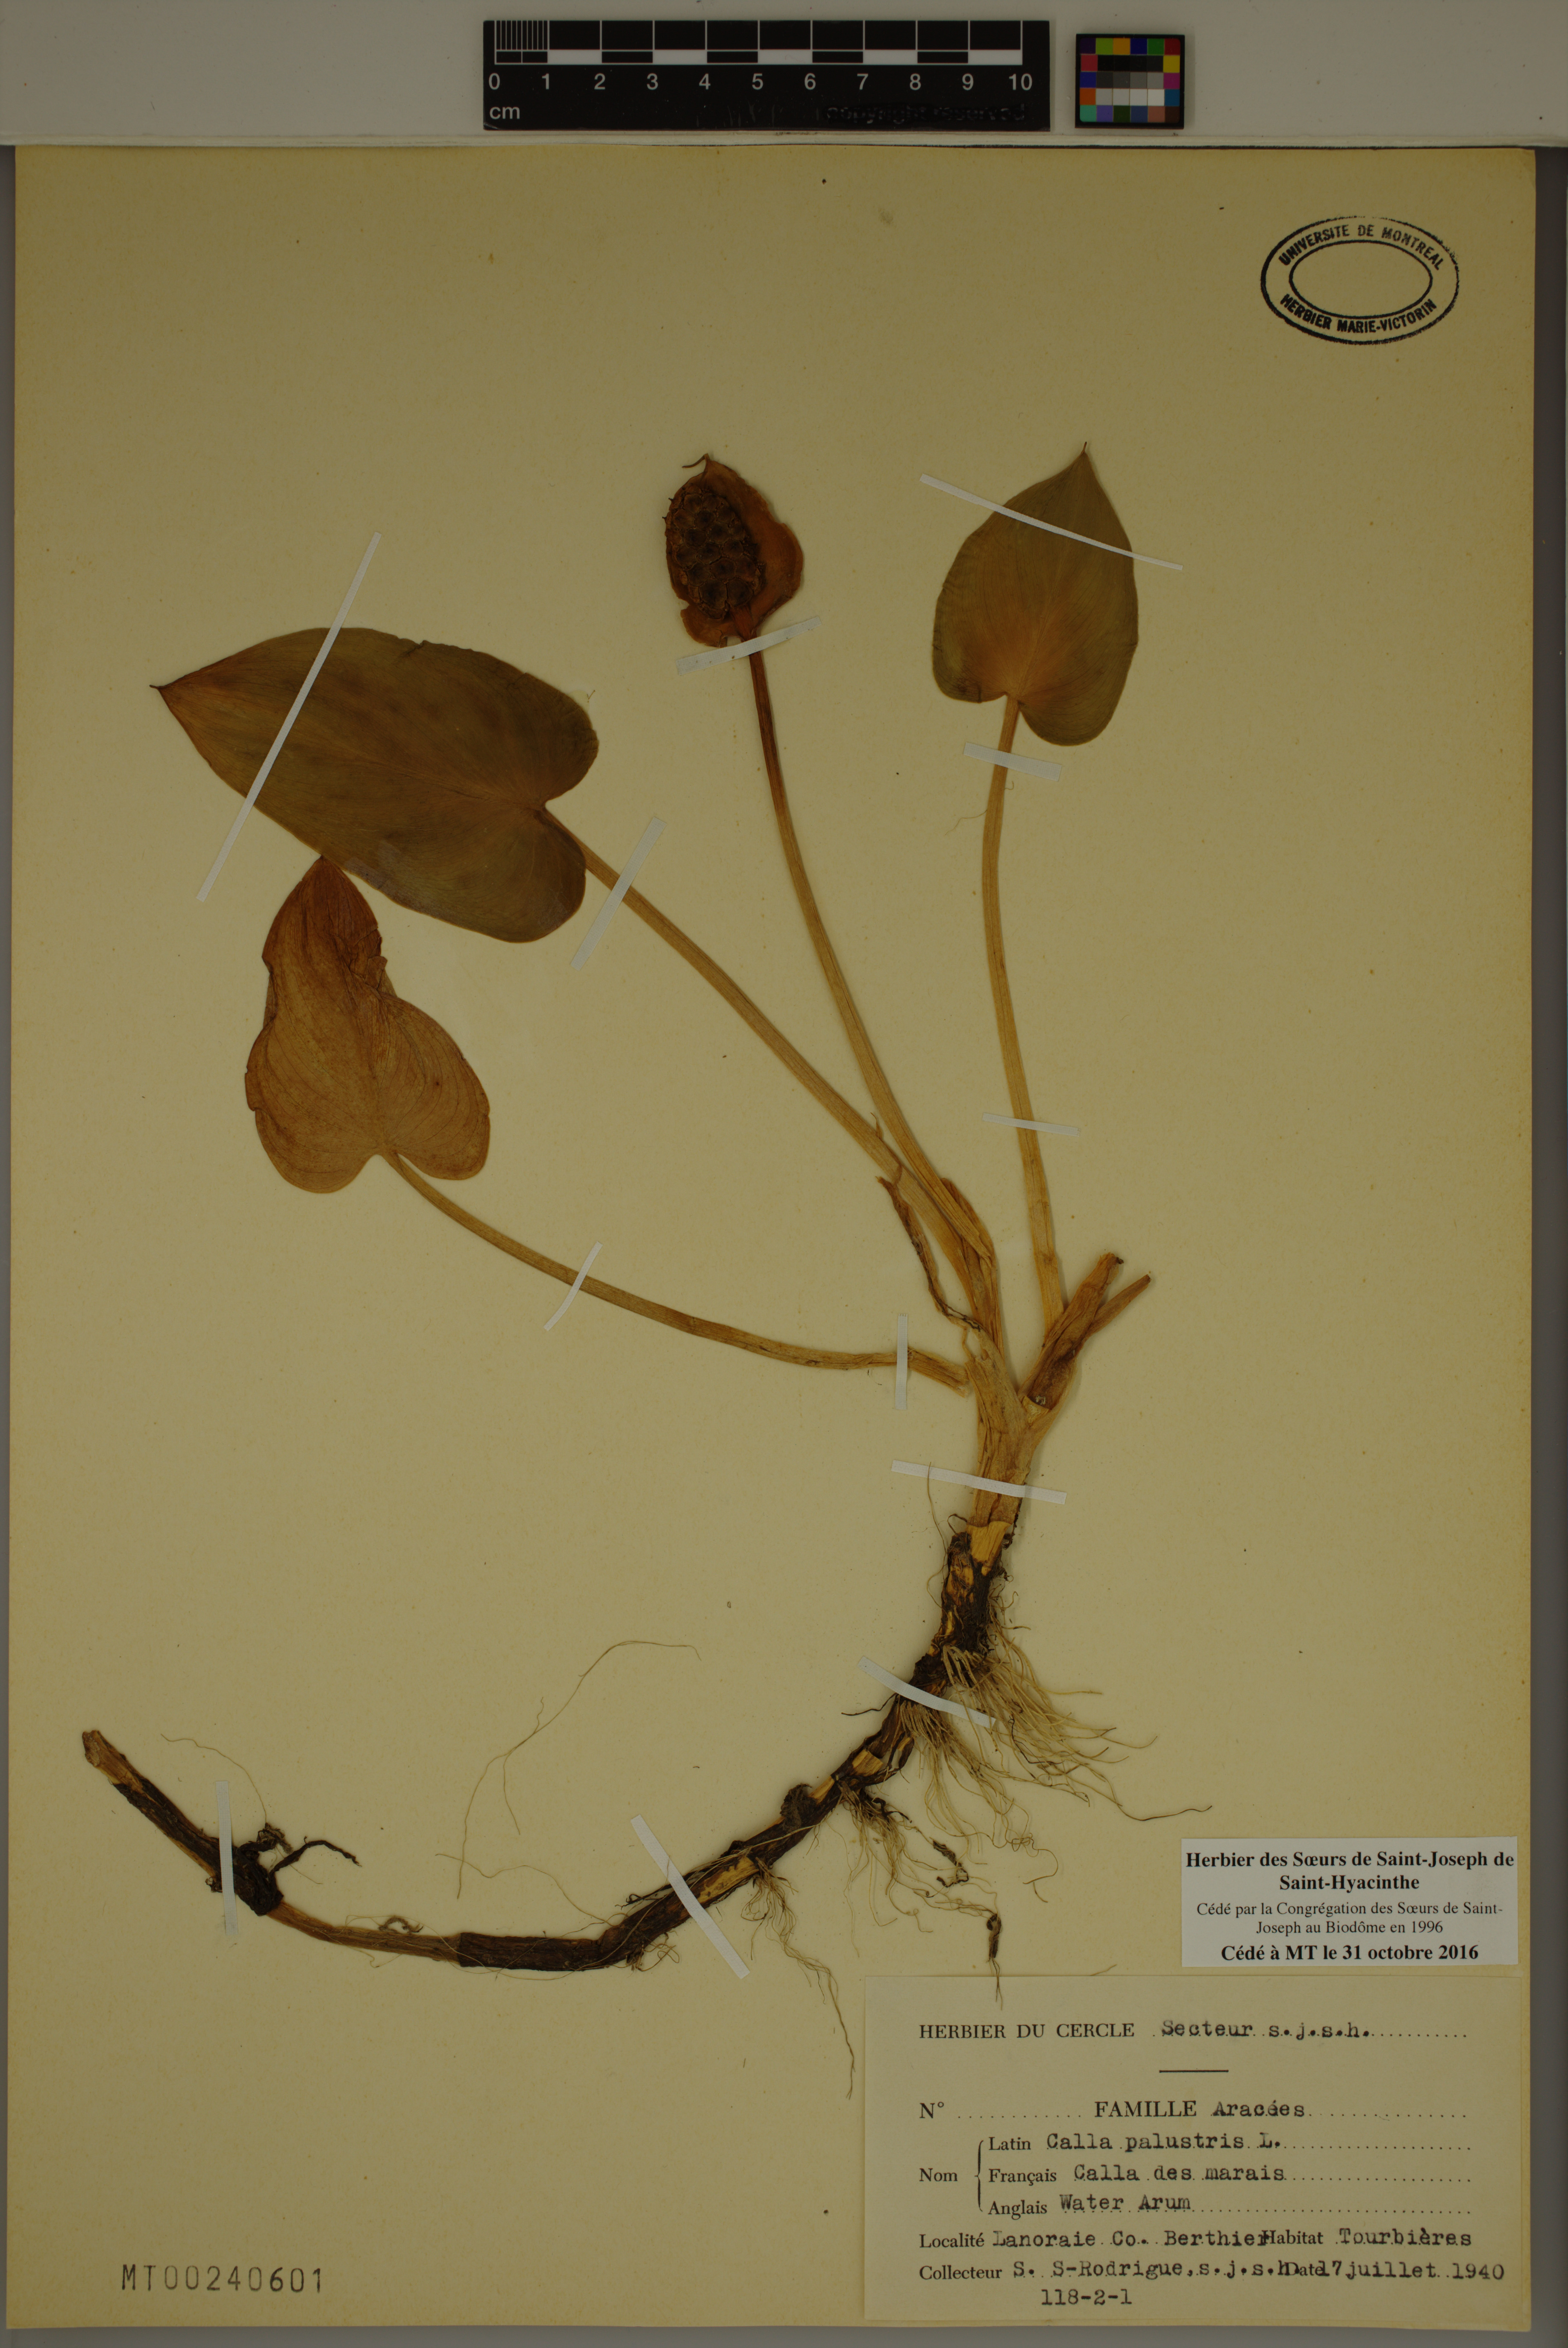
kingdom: Plantae
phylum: Tracheophyta
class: Liliopsida
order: Alismatales
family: Araceae
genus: Calla
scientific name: Calla palustris
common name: Bog arum
